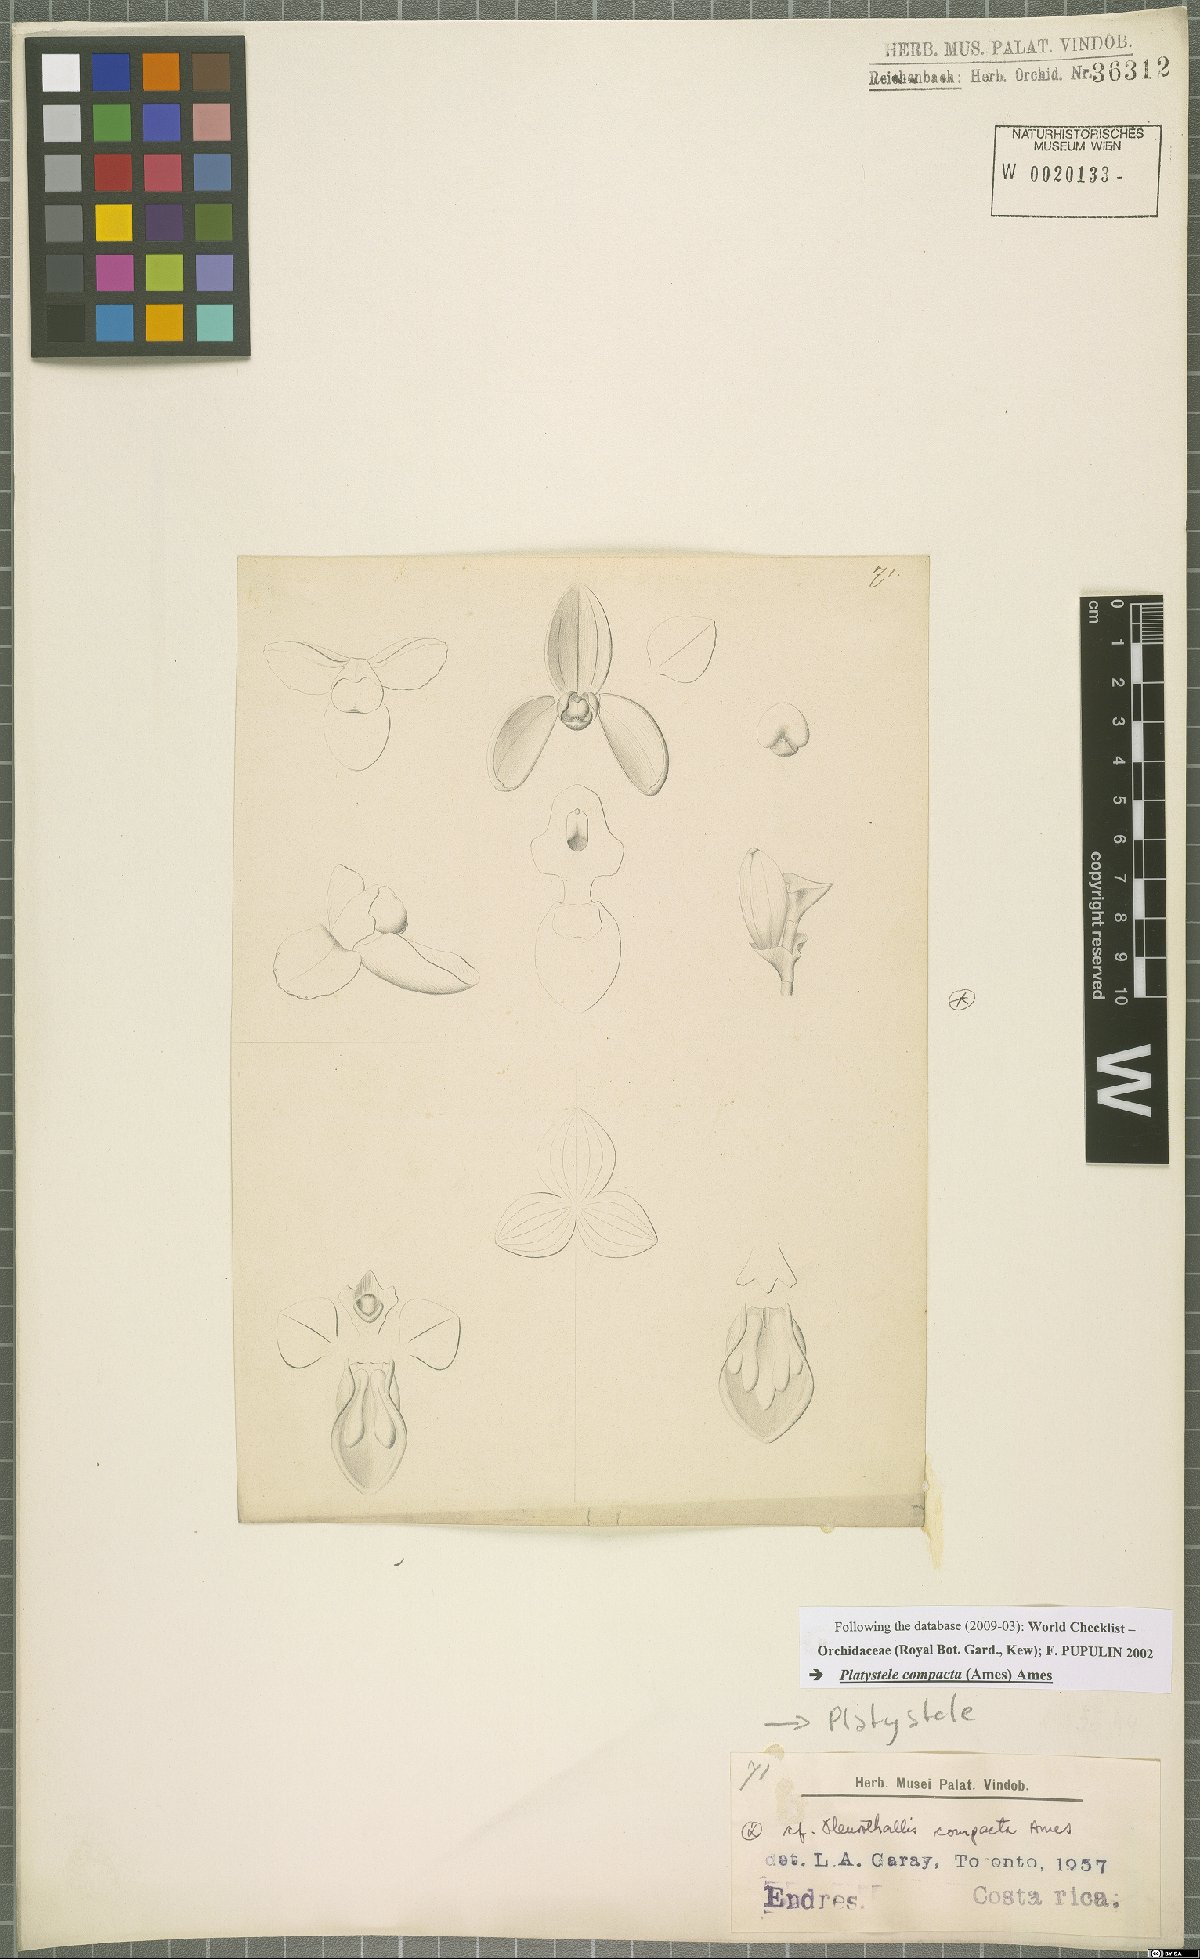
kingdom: Plantae
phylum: Tracheophyta
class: Liliopsida
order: Asparagales
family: Orchidaceae
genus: Platystele
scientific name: Platystele compacta
